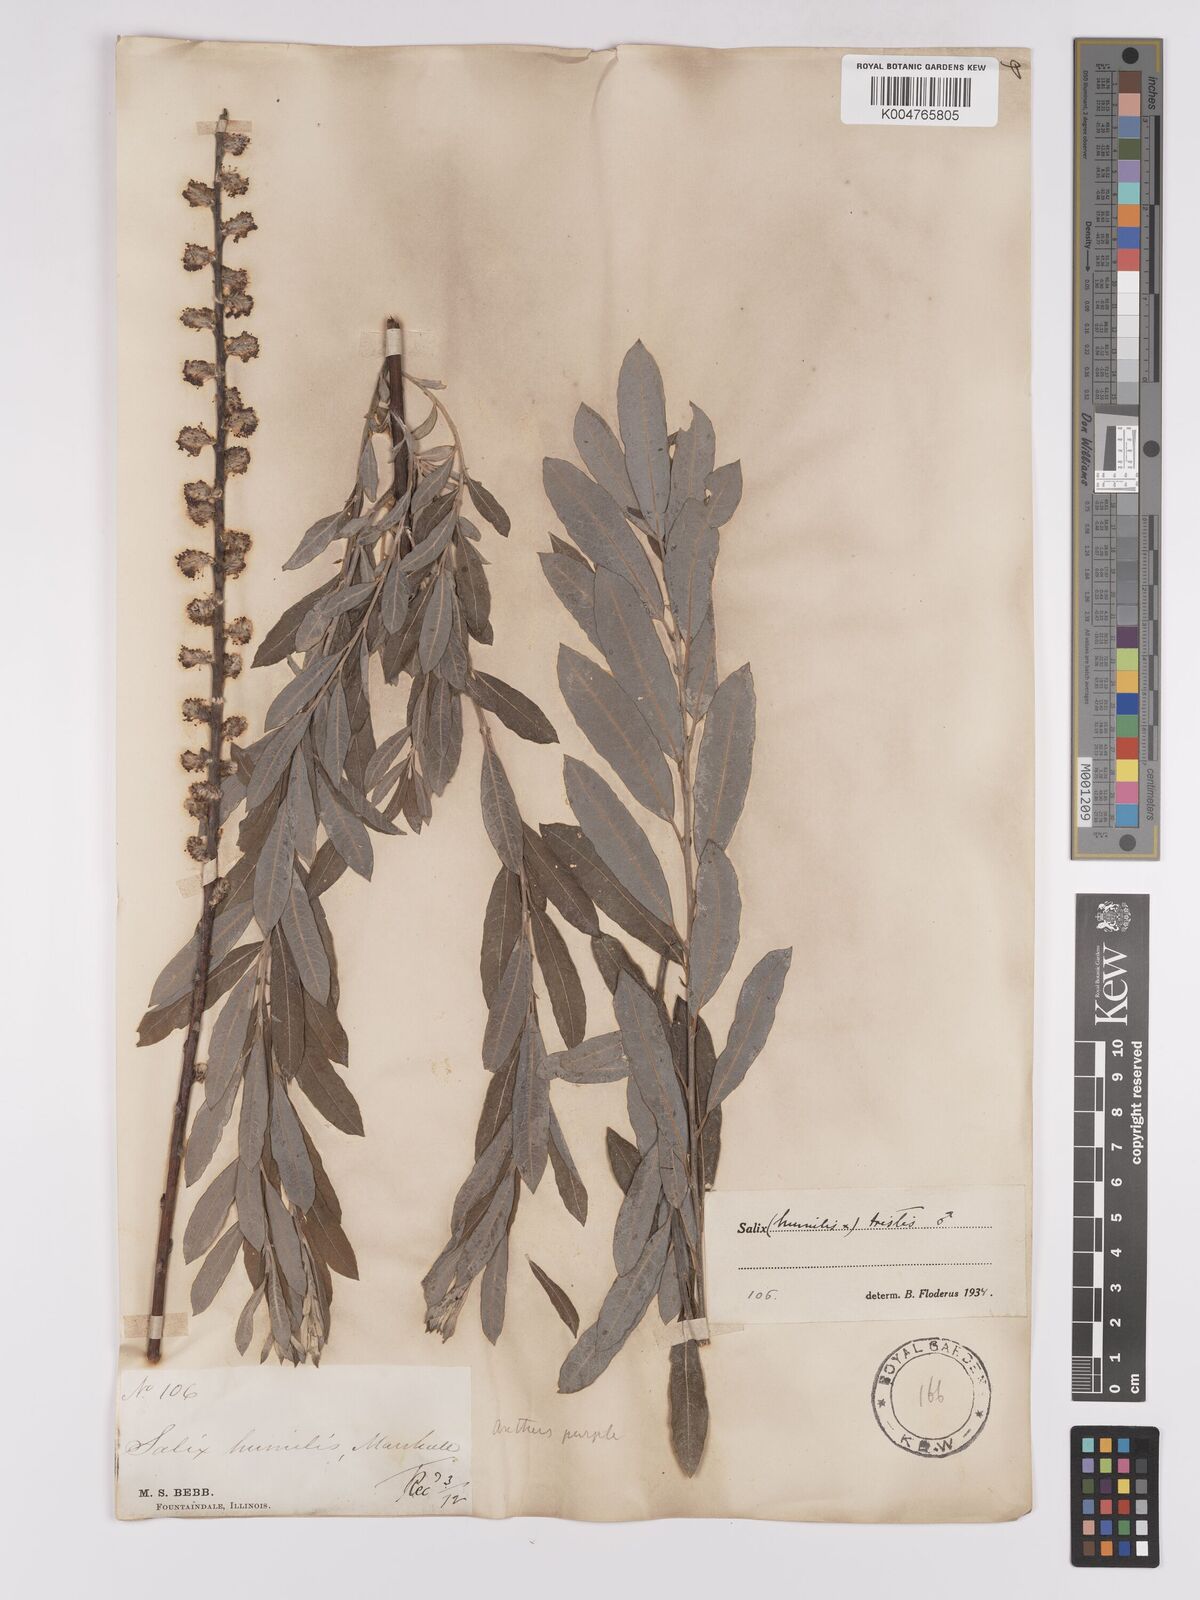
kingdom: Plantae
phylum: Tracheophyta
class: Magnoliopsida
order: Malpighiales
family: Salicaceae
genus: Salix
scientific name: Salix
